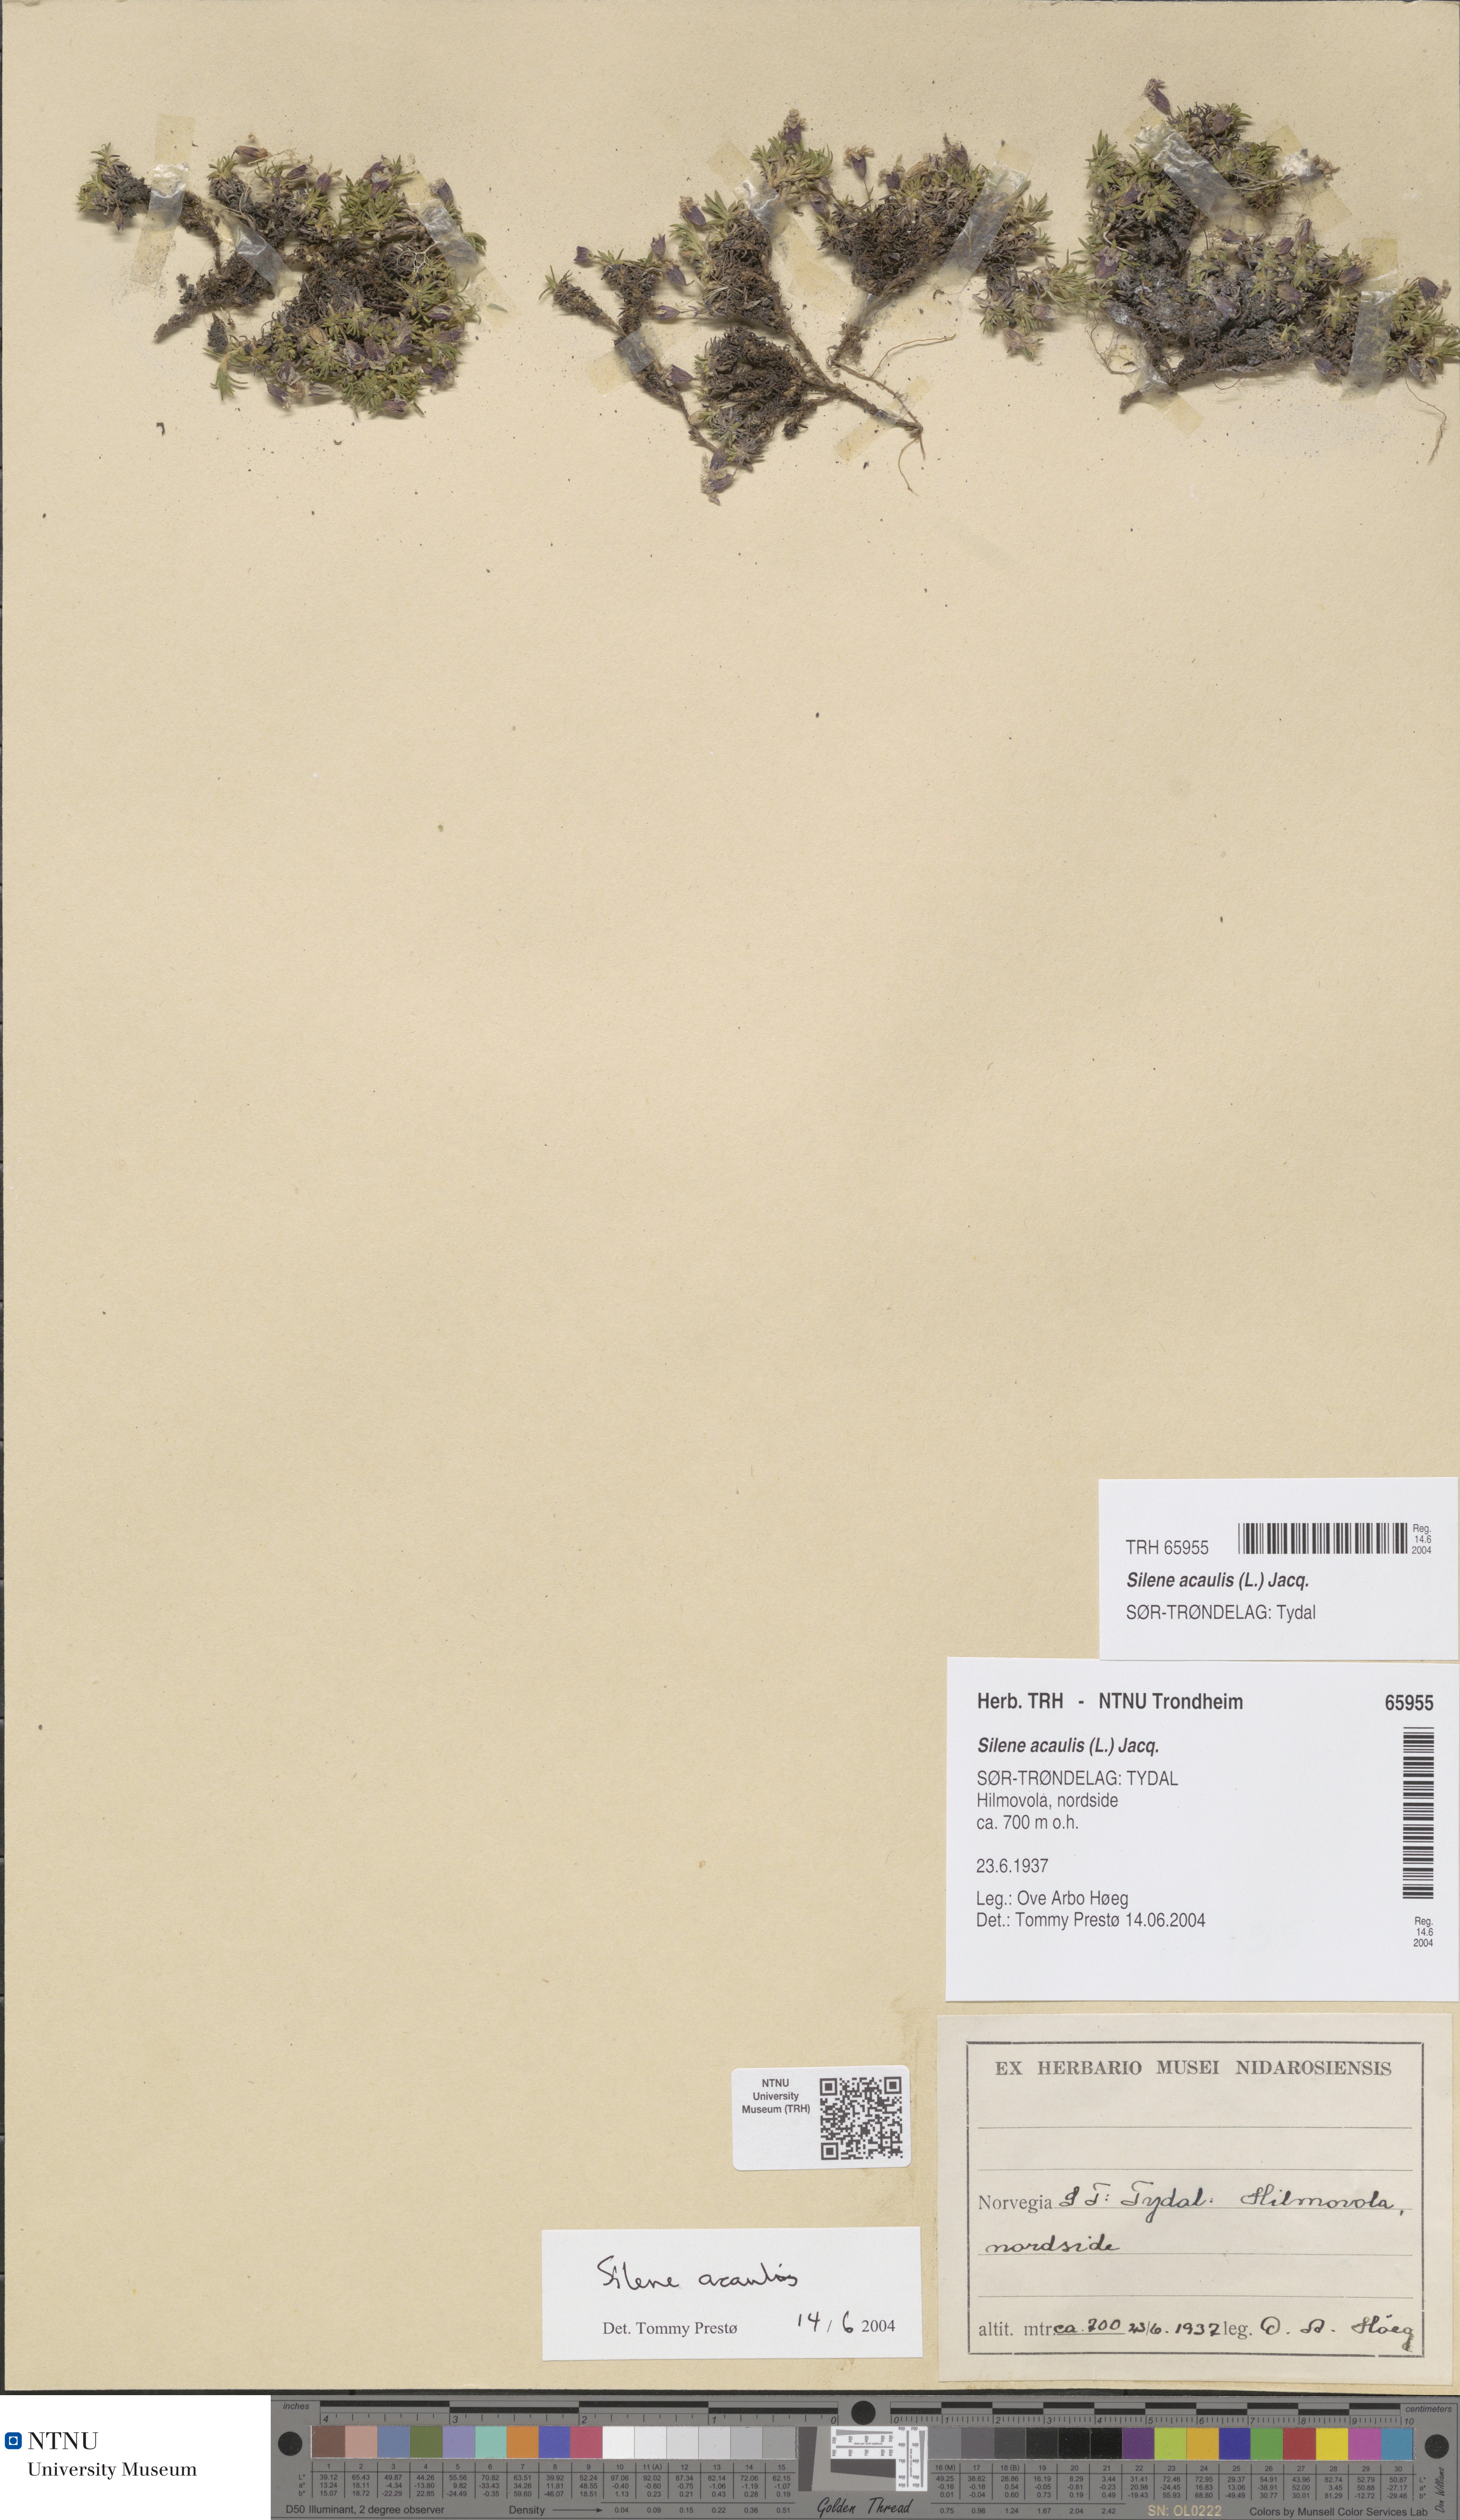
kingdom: Plantae
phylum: Tracheophyta
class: Magnoliopsida
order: Caryophyllales
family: Caryophyllaceae
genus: Silene
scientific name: Silene acaulis
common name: Moss campion
